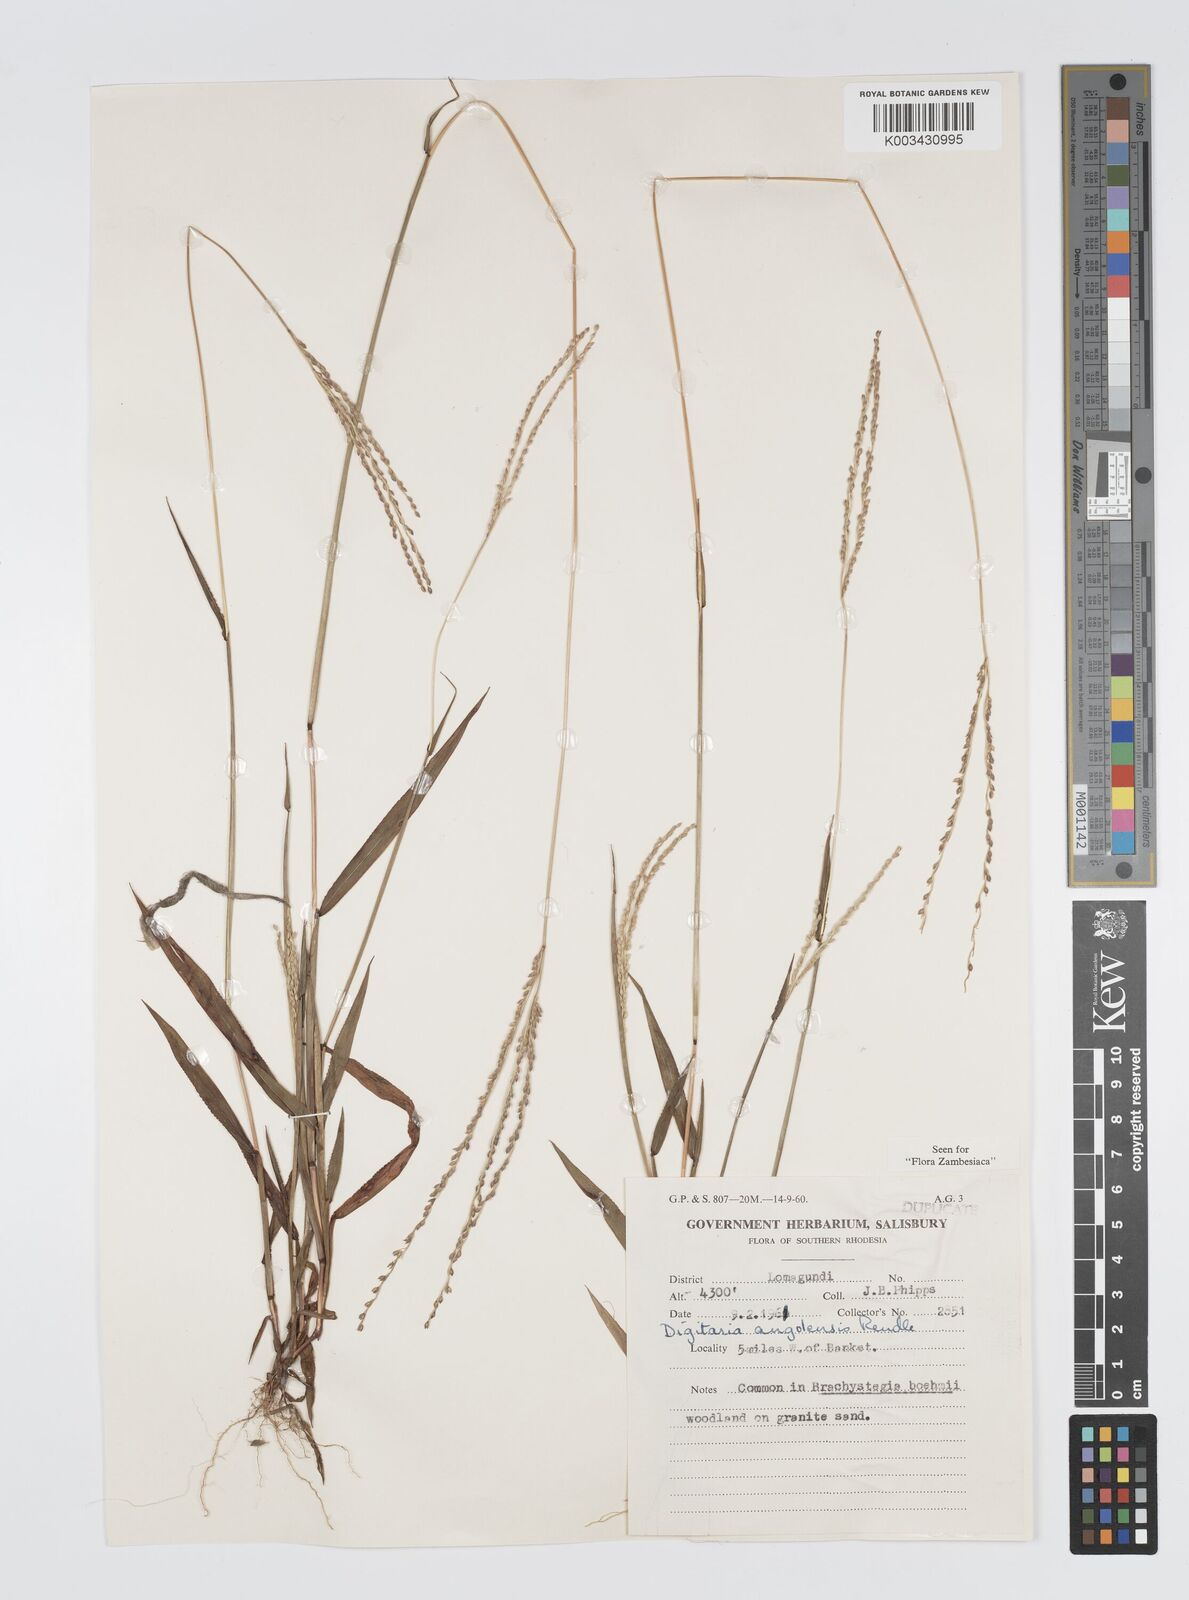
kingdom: Plantae
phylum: Tracheophyta
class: Liliopsida
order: Poales
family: Poaceae
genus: Digitaria
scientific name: Digitaria angolensis
